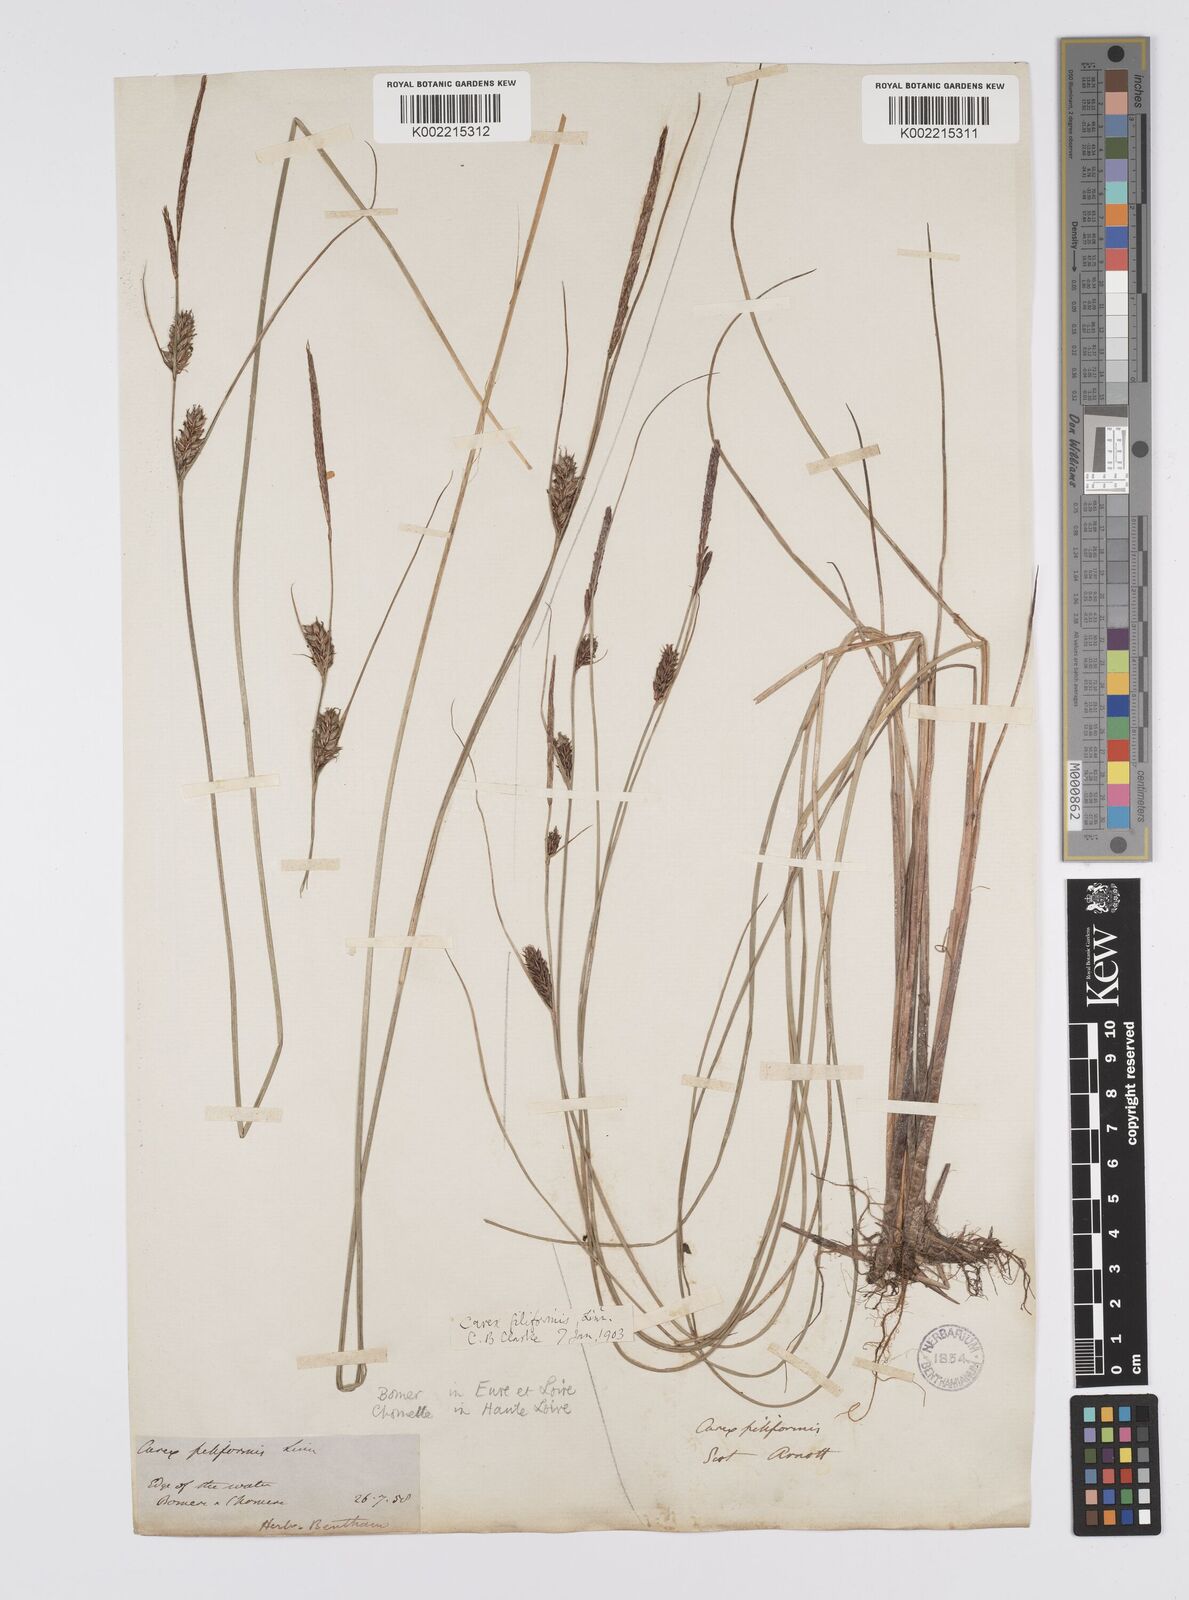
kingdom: Plantae
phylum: Tracheophyta
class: Liliopsida
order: Poales
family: Cyperaceae
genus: Carex
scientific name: Carex lasiocarpa
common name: Slender sedge
